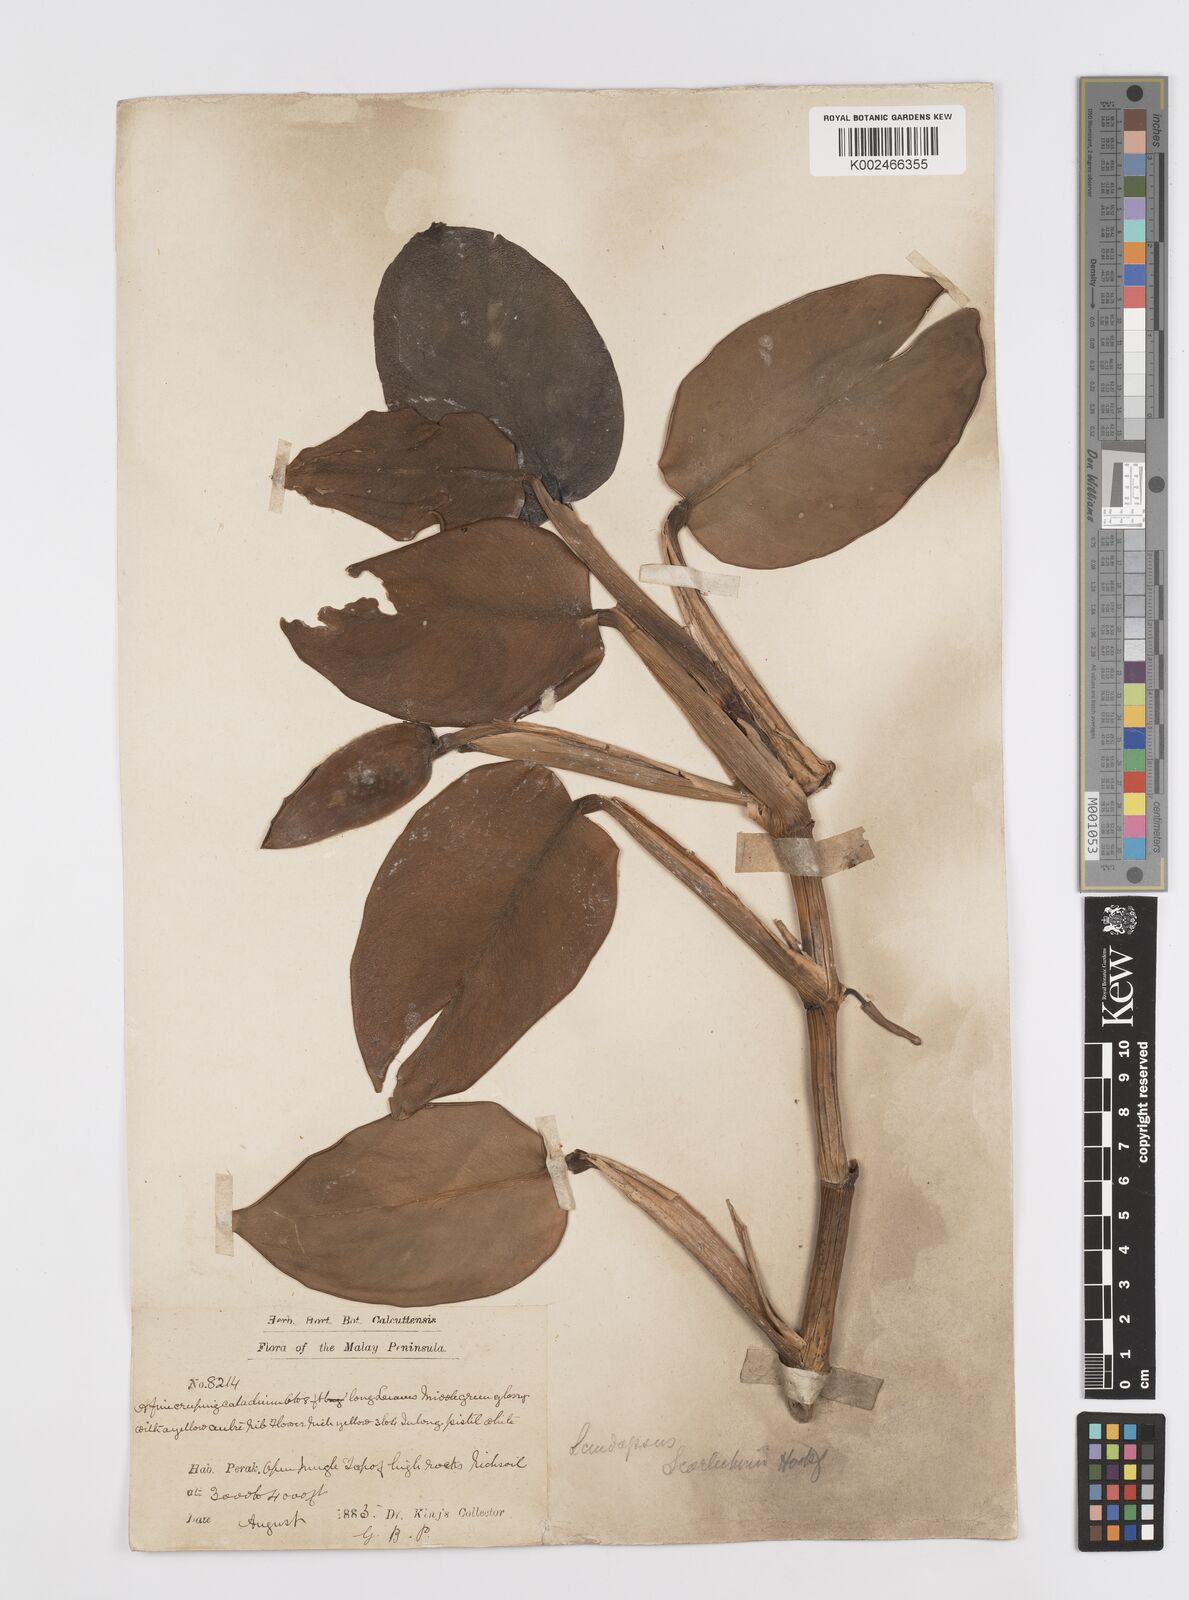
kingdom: Plantae
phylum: Tracheophyta
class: Liliopsida
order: Alismatales
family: Araceae
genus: Scindapsus
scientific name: Scindapsus scortechinii
